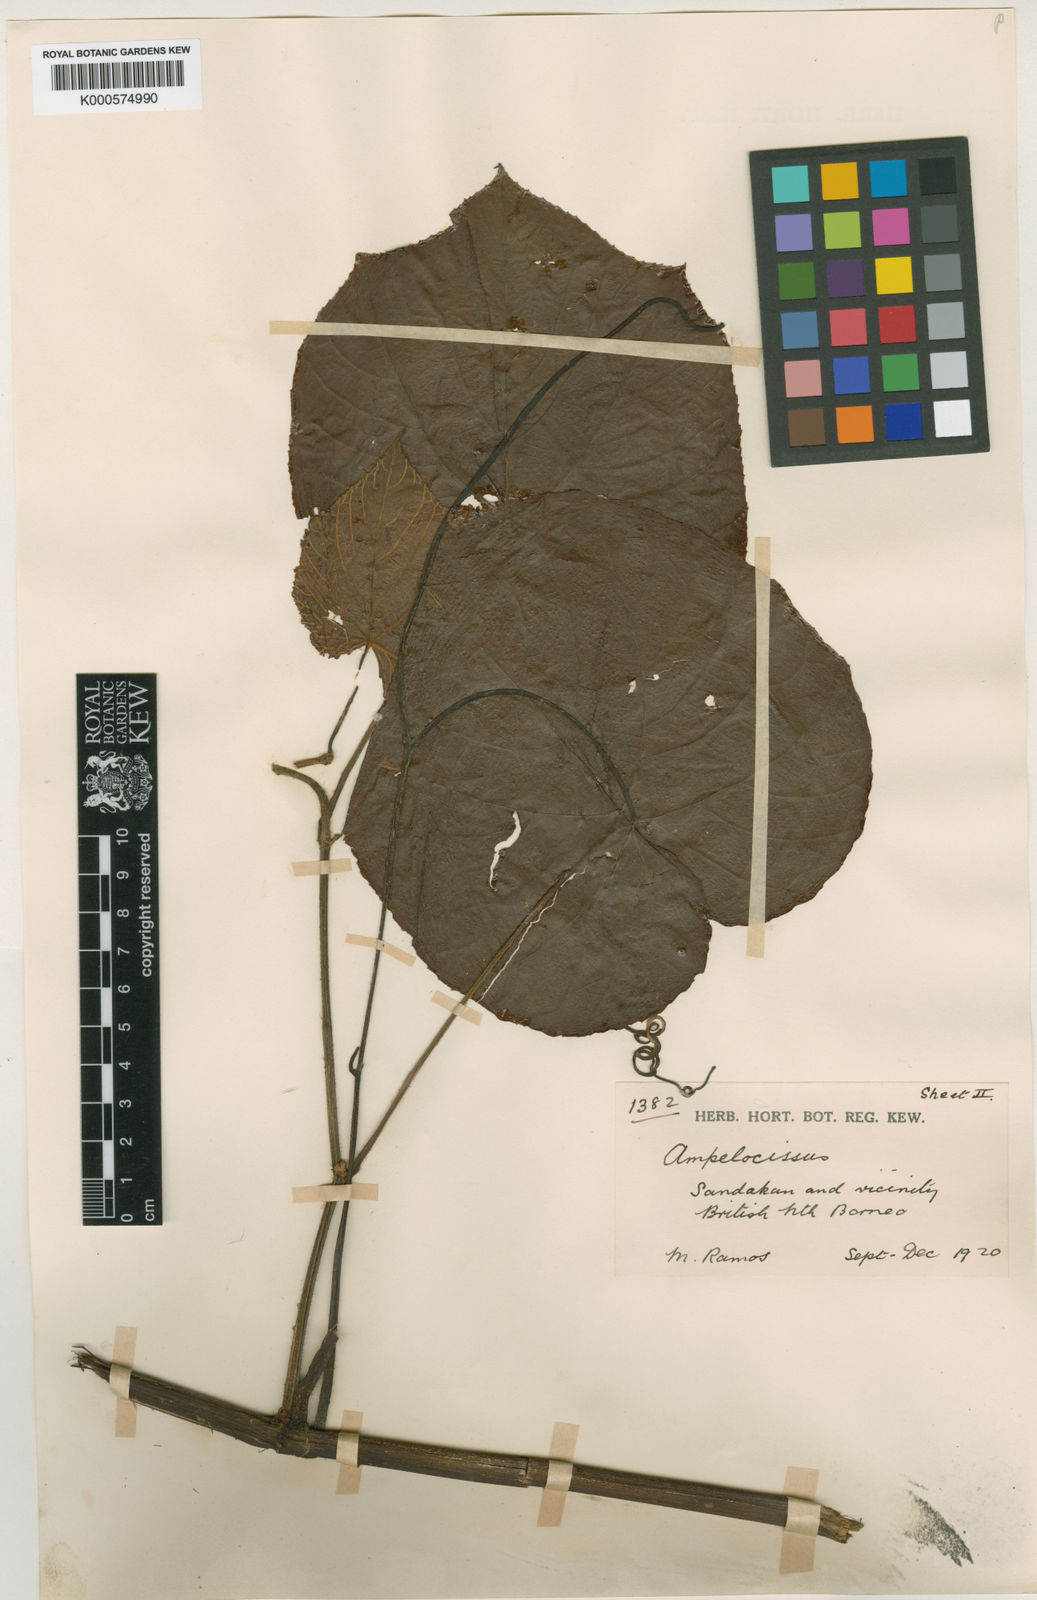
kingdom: Plantae
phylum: Tracheophyta
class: Magnoliopsida
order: Vitales
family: Vitaceae
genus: Ampelocissus
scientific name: Ampelocissus borneensis
